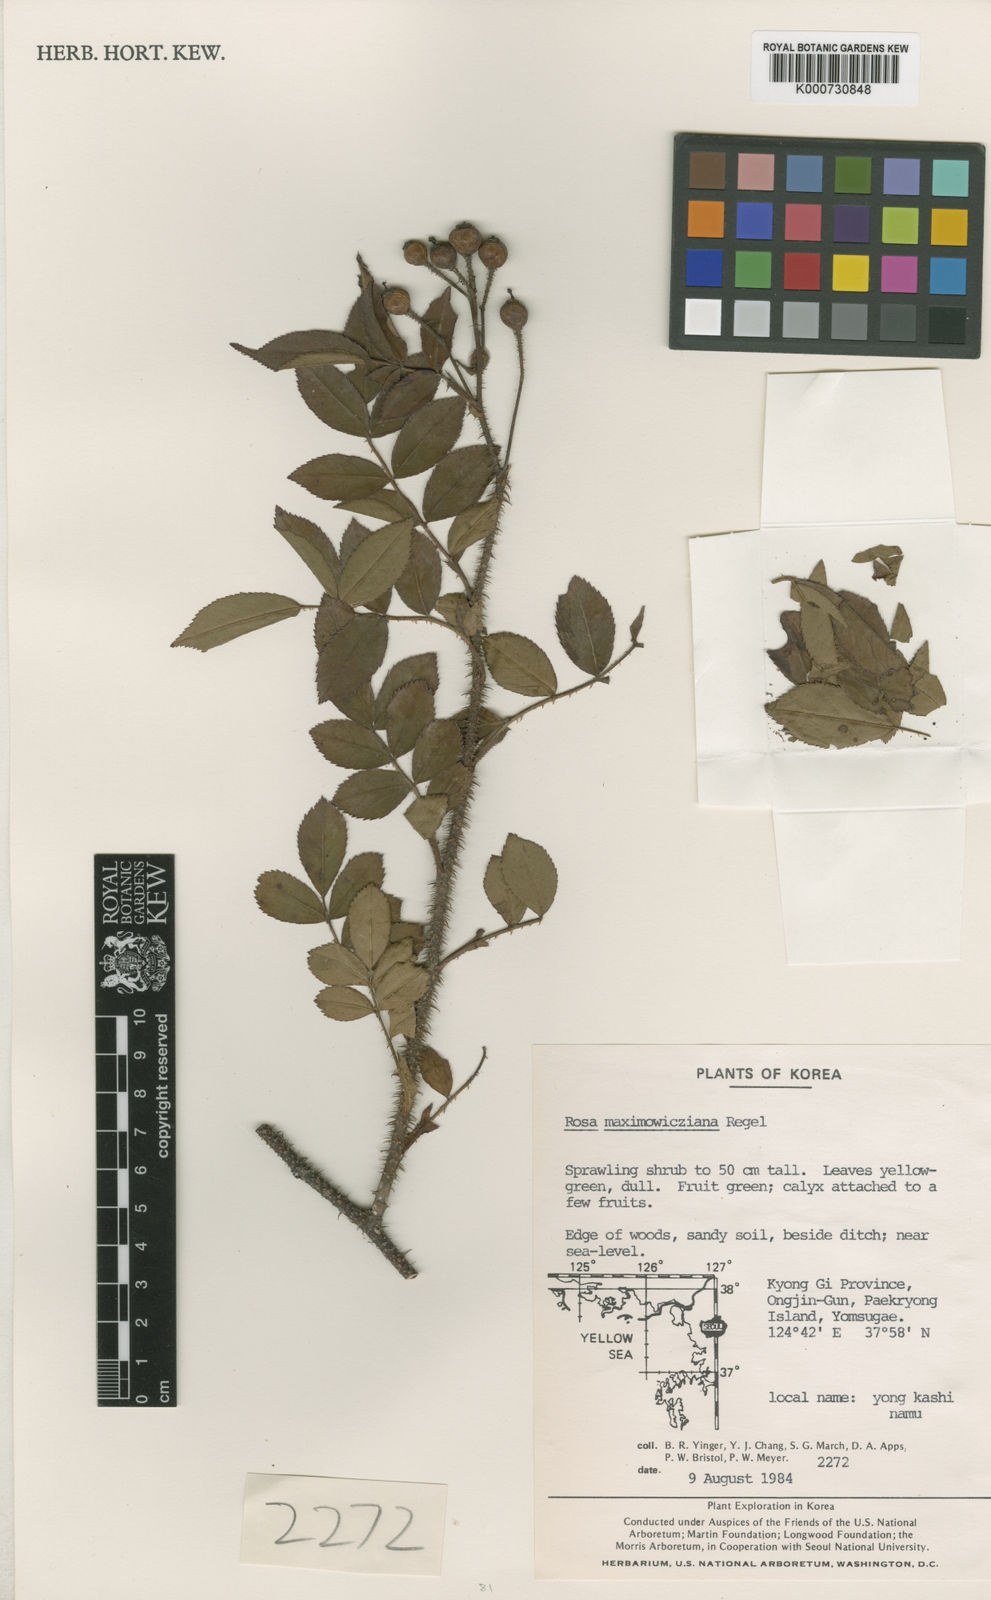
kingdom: Plantae
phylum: Tracheophyta
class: Magnoliopsida
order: Rosales
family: Rosaceae
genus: Rosa
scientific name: Rosa maximowicziana
